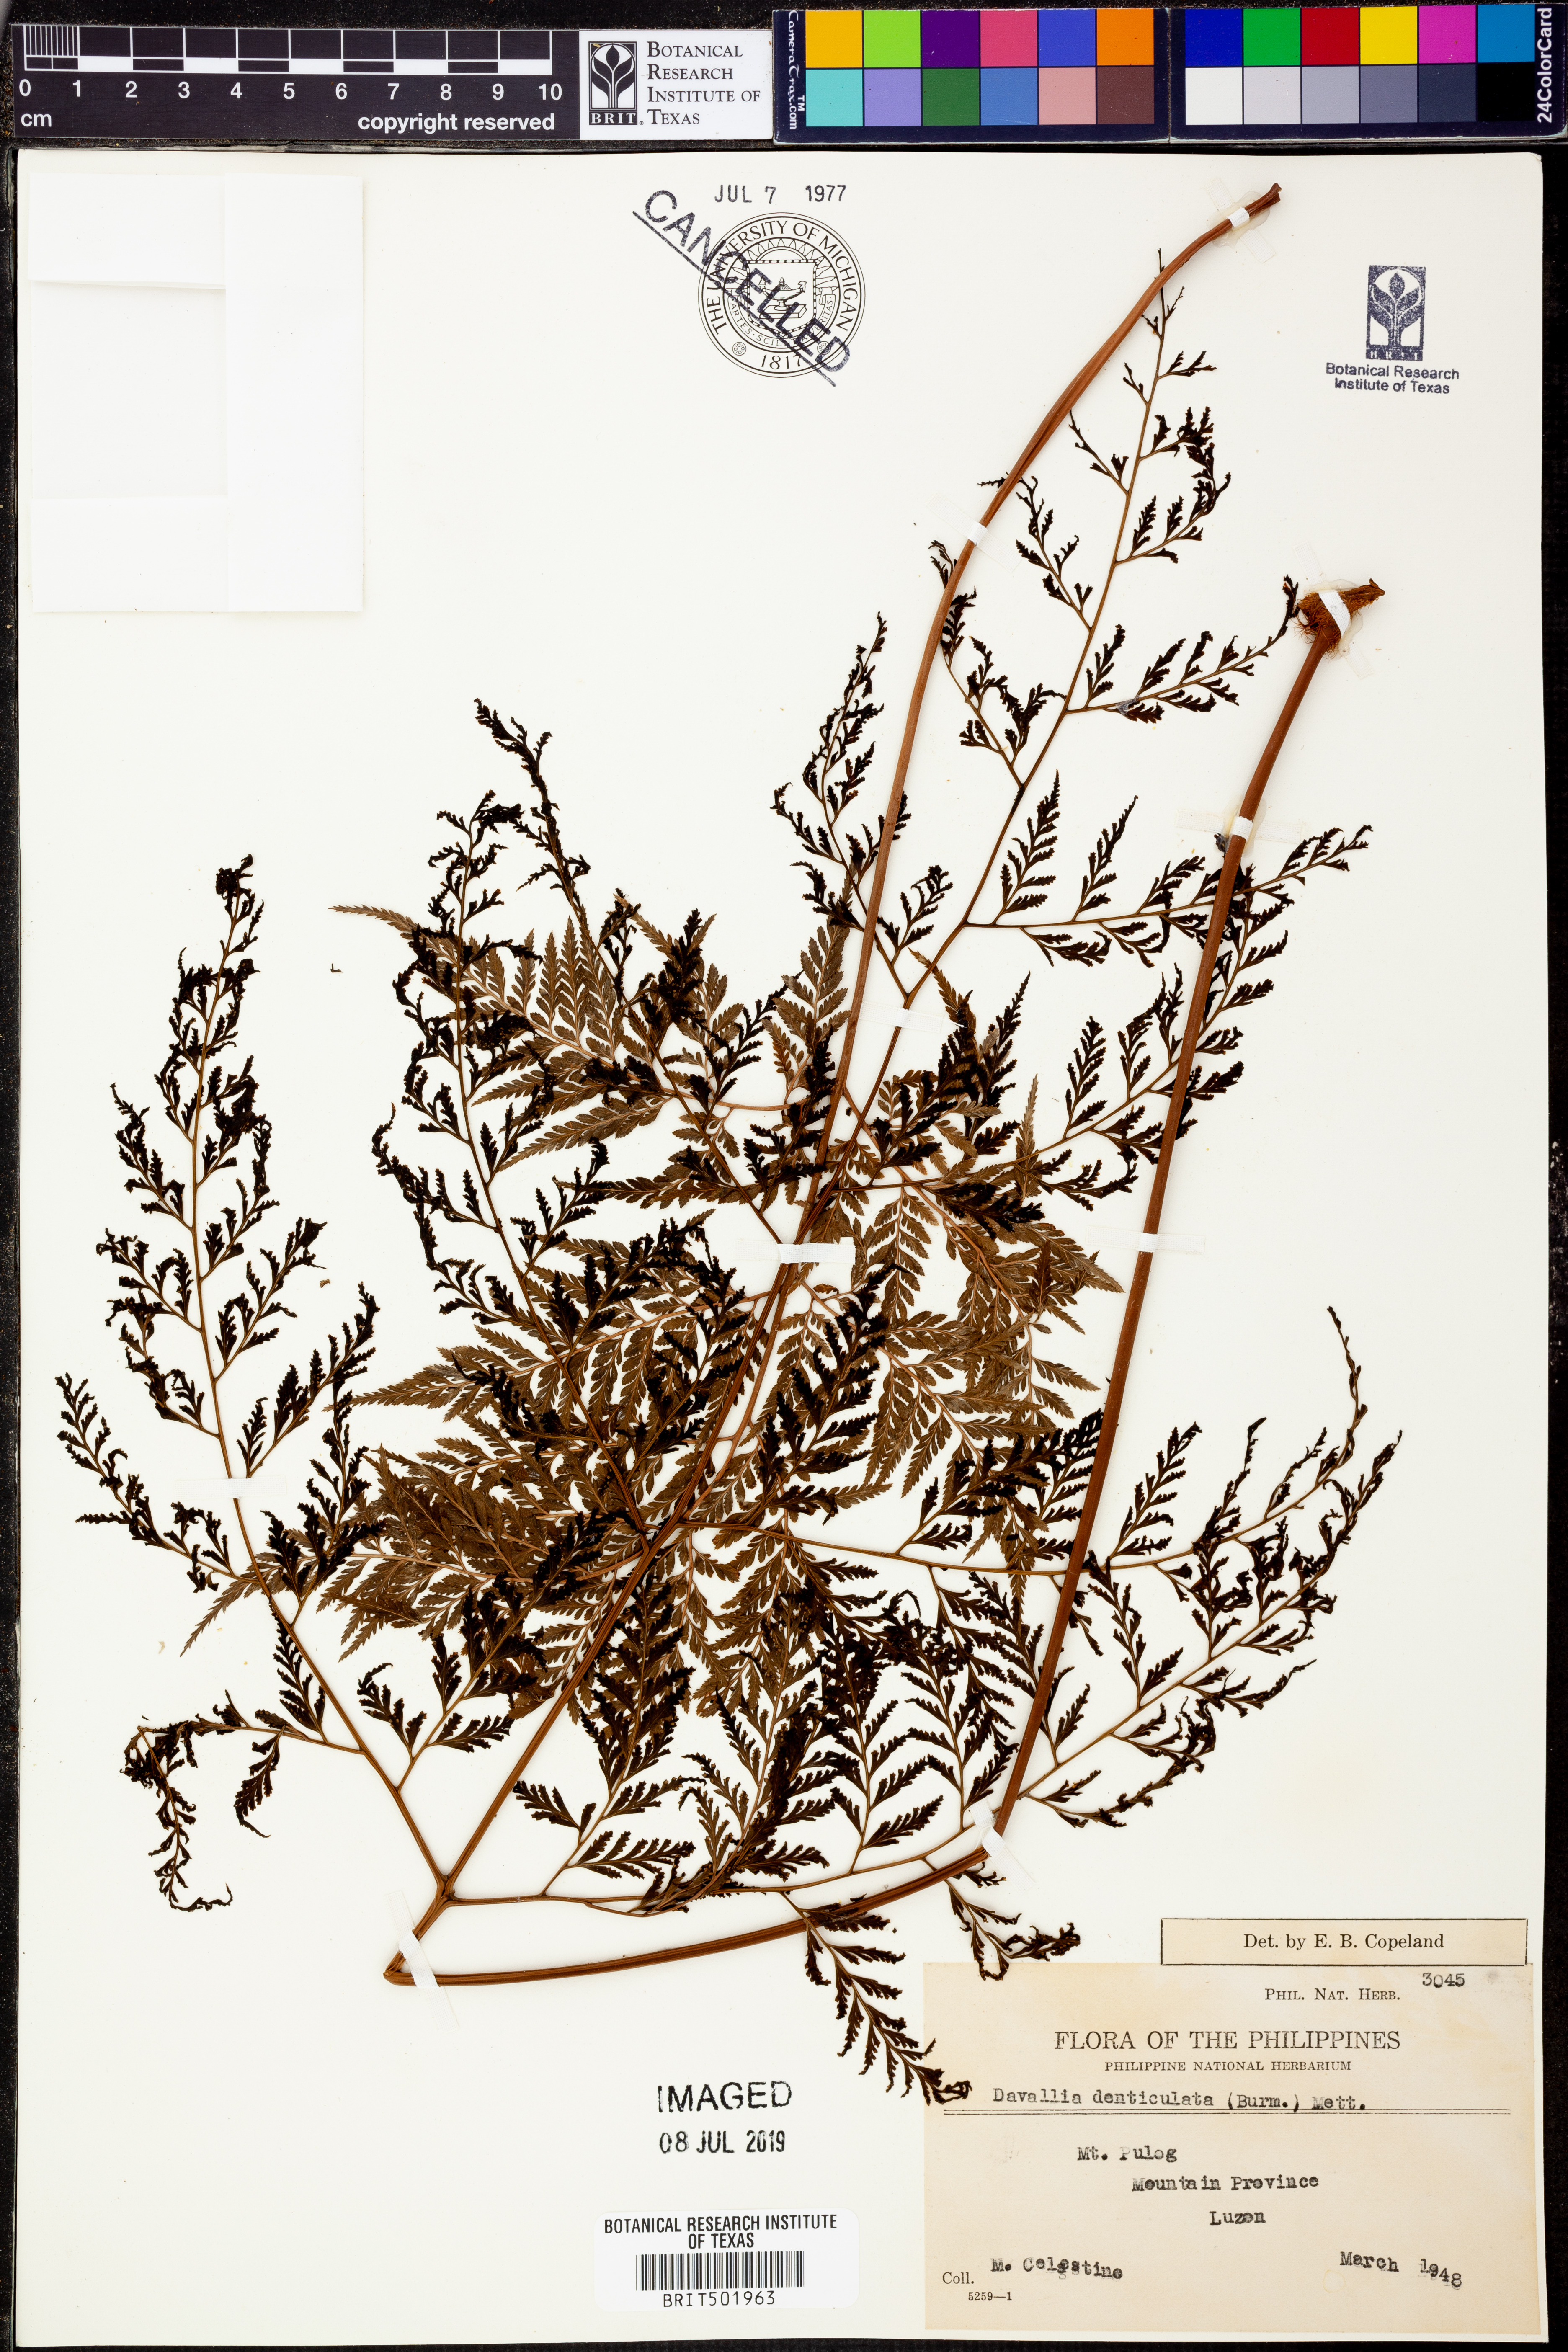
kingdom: Plantae
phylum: Tracheophyta
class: Polypodiopsida
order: Polypodiales
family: Davalliaceae
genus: Davallia
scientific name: Davallia denticulata
